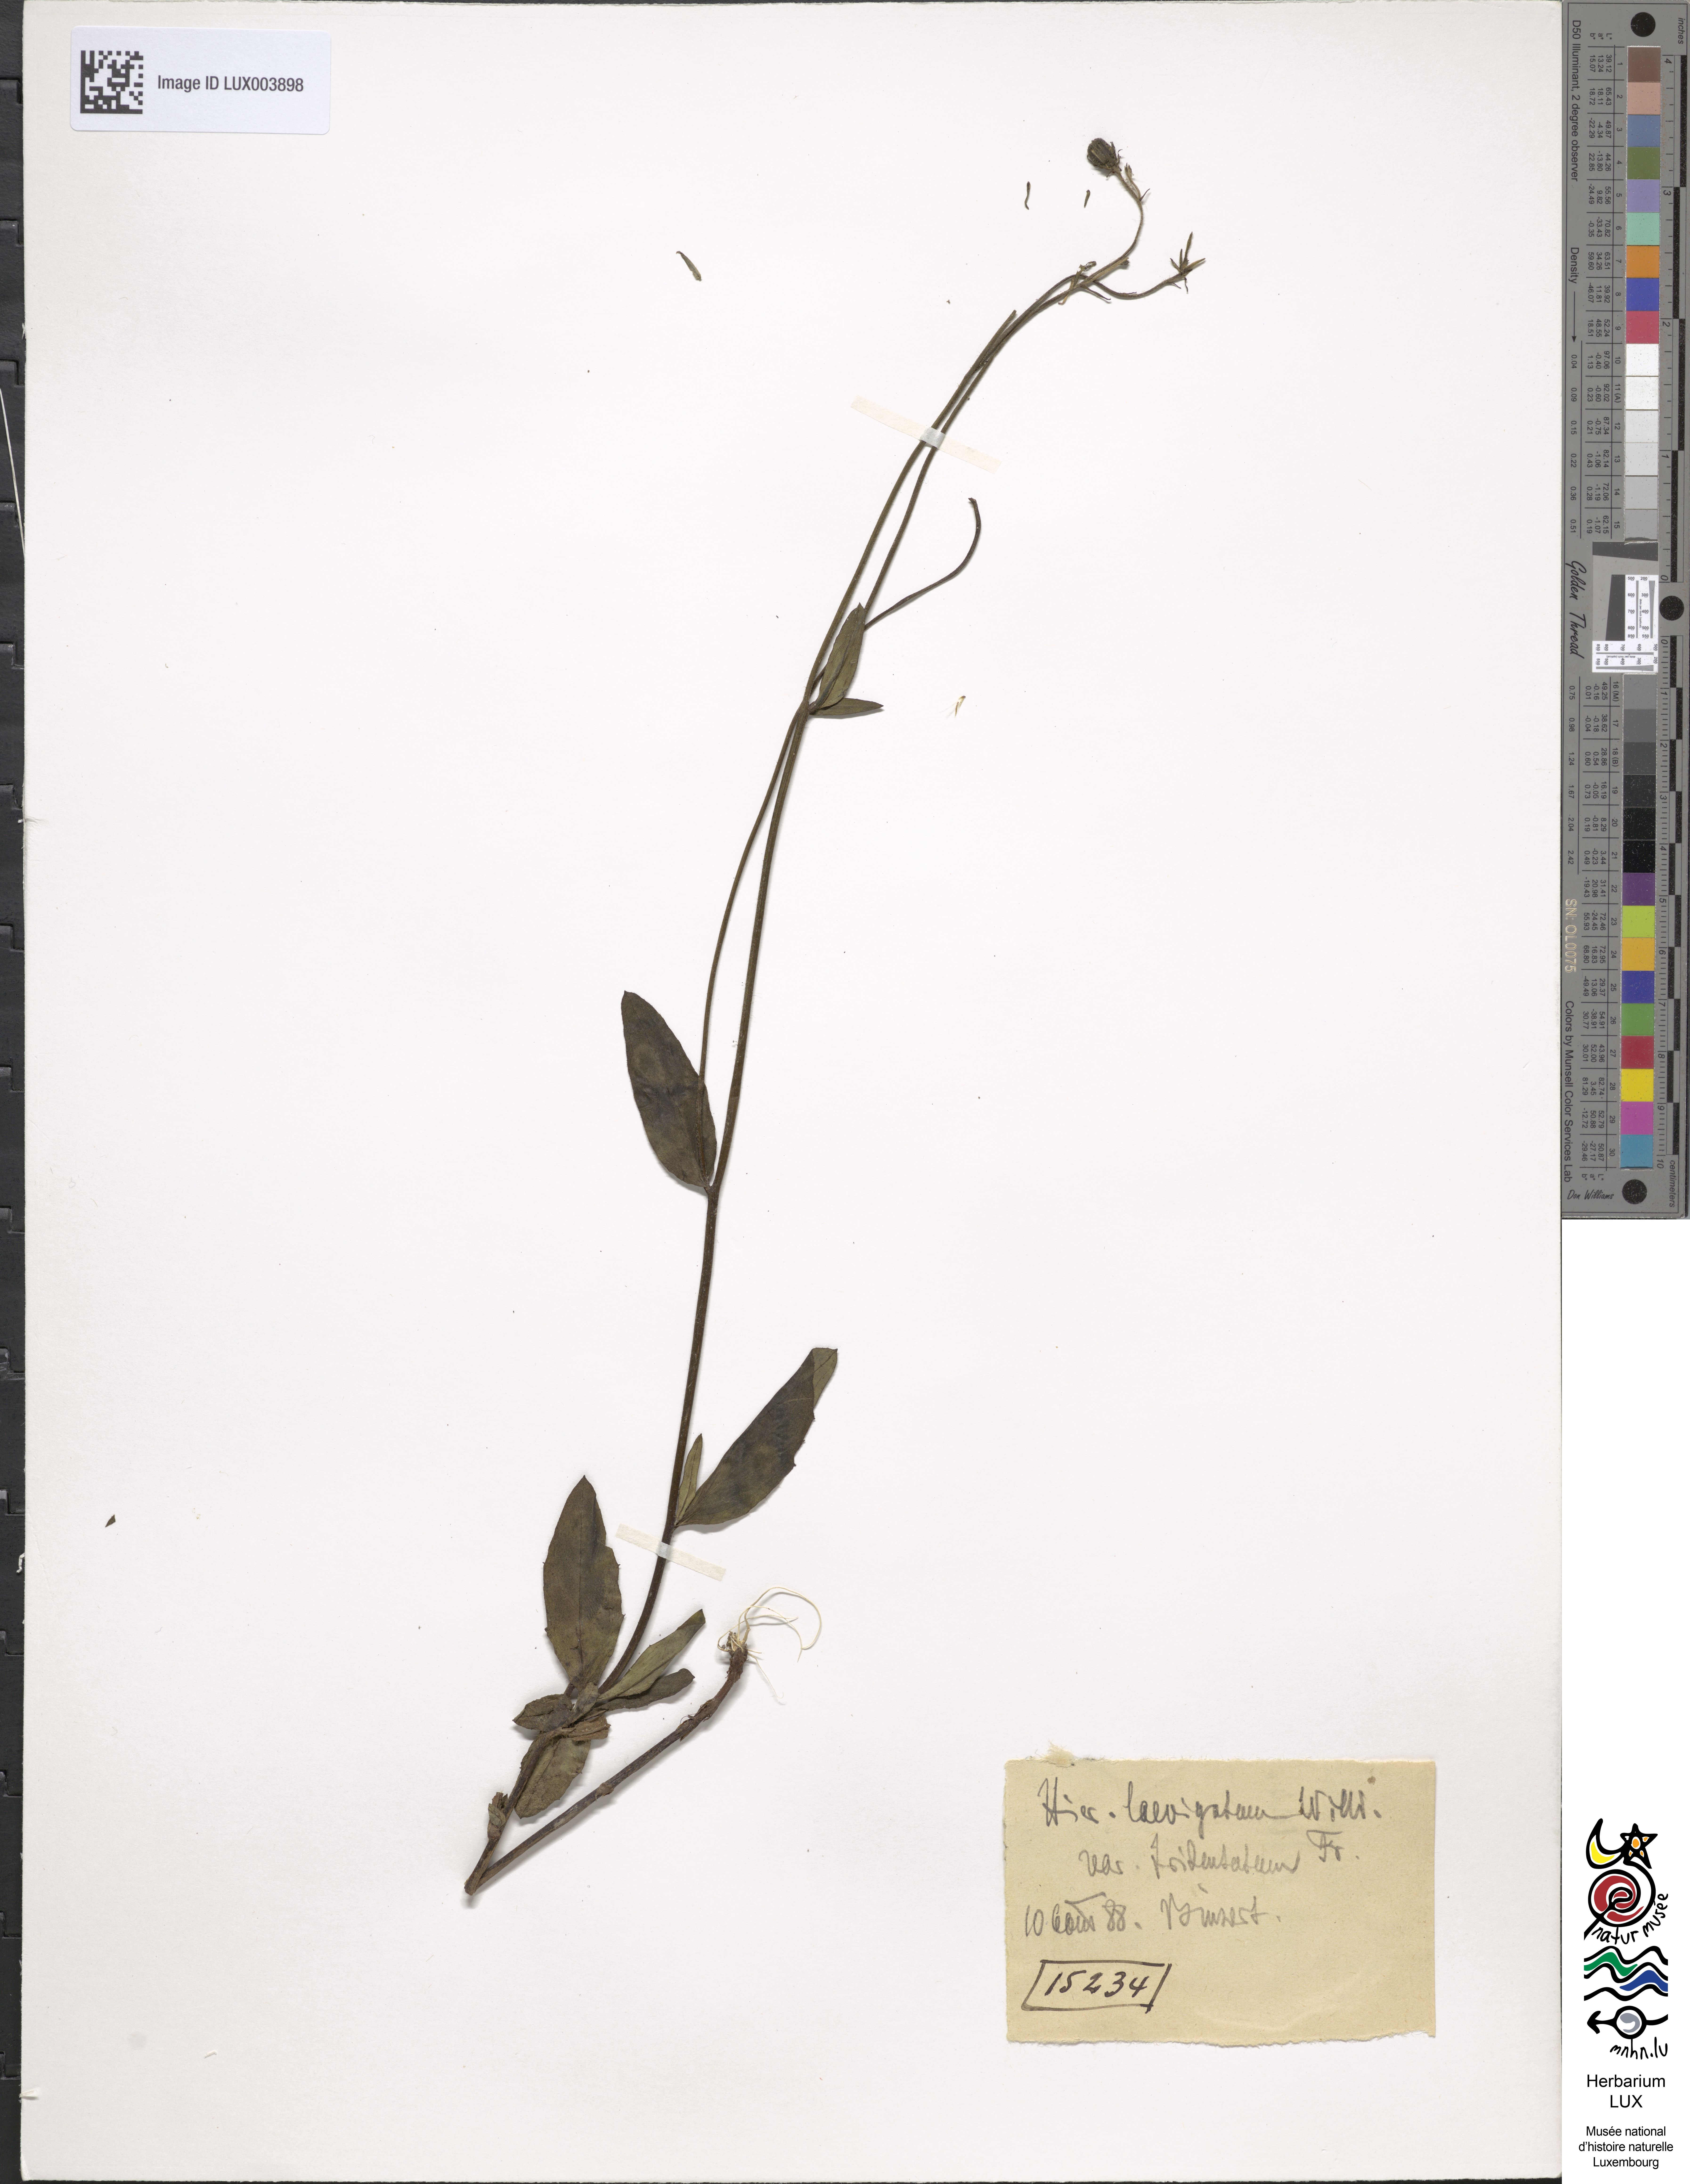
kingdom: Plantae
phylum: Tracheophyta
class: Magnoliopsida
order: Asterales
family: Asteraceae
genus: Hieracium
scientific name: Hieracium laevigatum
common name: Smooth hawkweed
